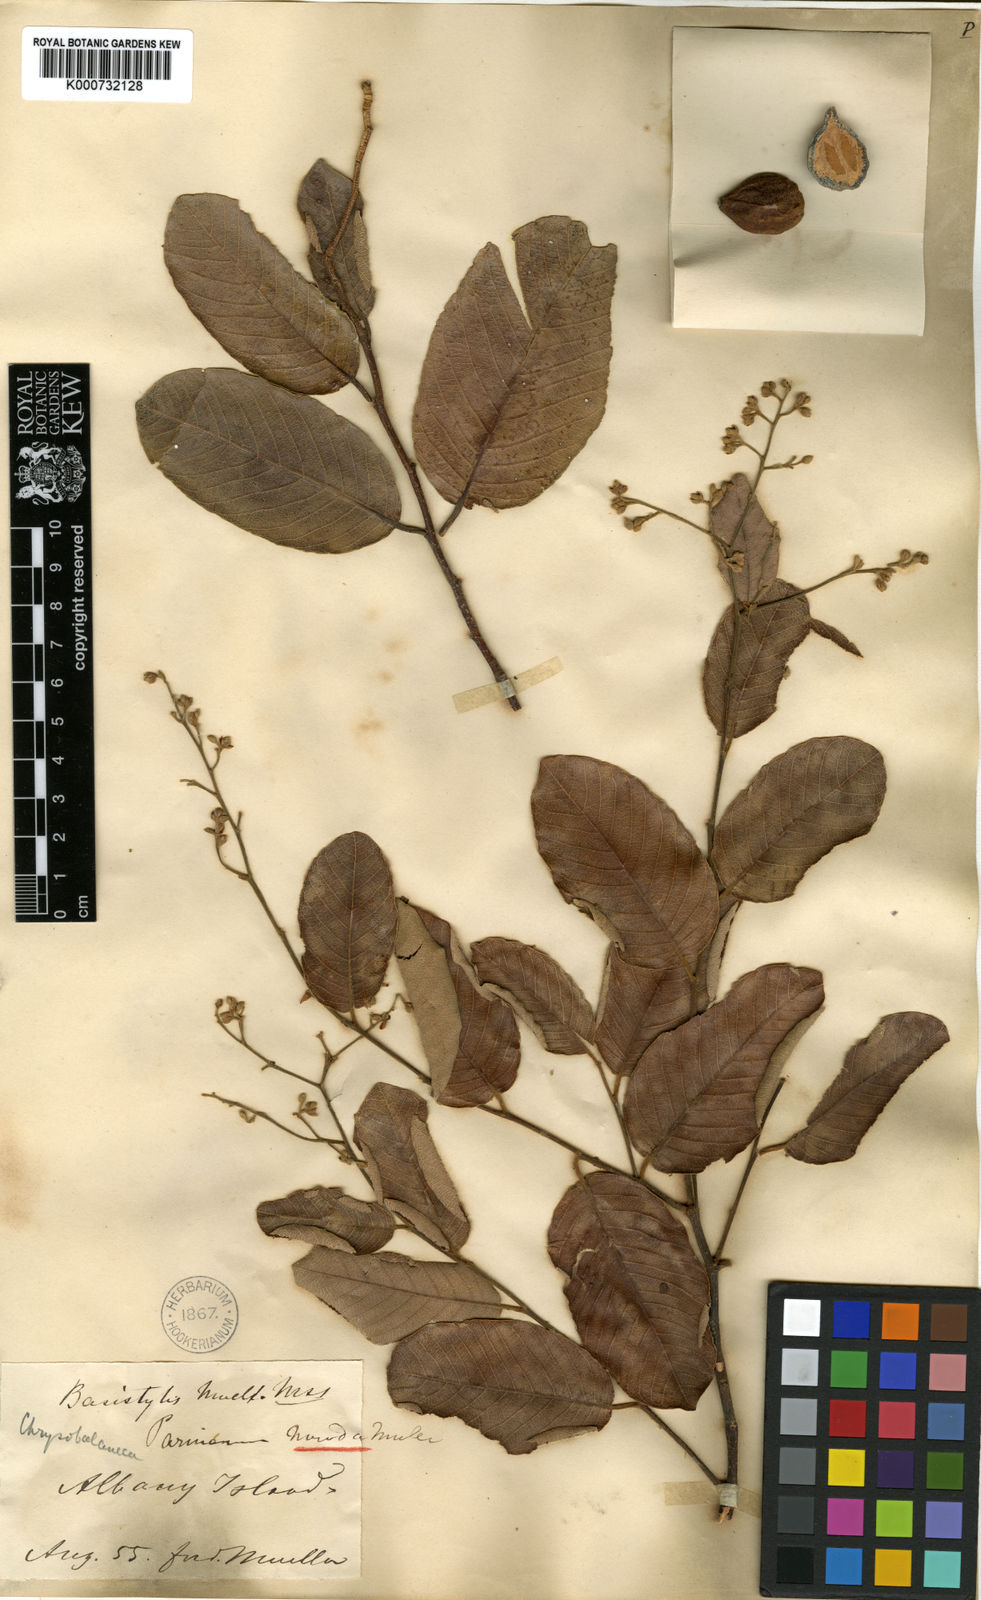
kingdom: Plantae
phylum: Tracheophyta
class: Magnoliopsida
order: Malpighiales
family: Chrysobalanaceae
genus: Parinari
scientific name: Parinari nonda
